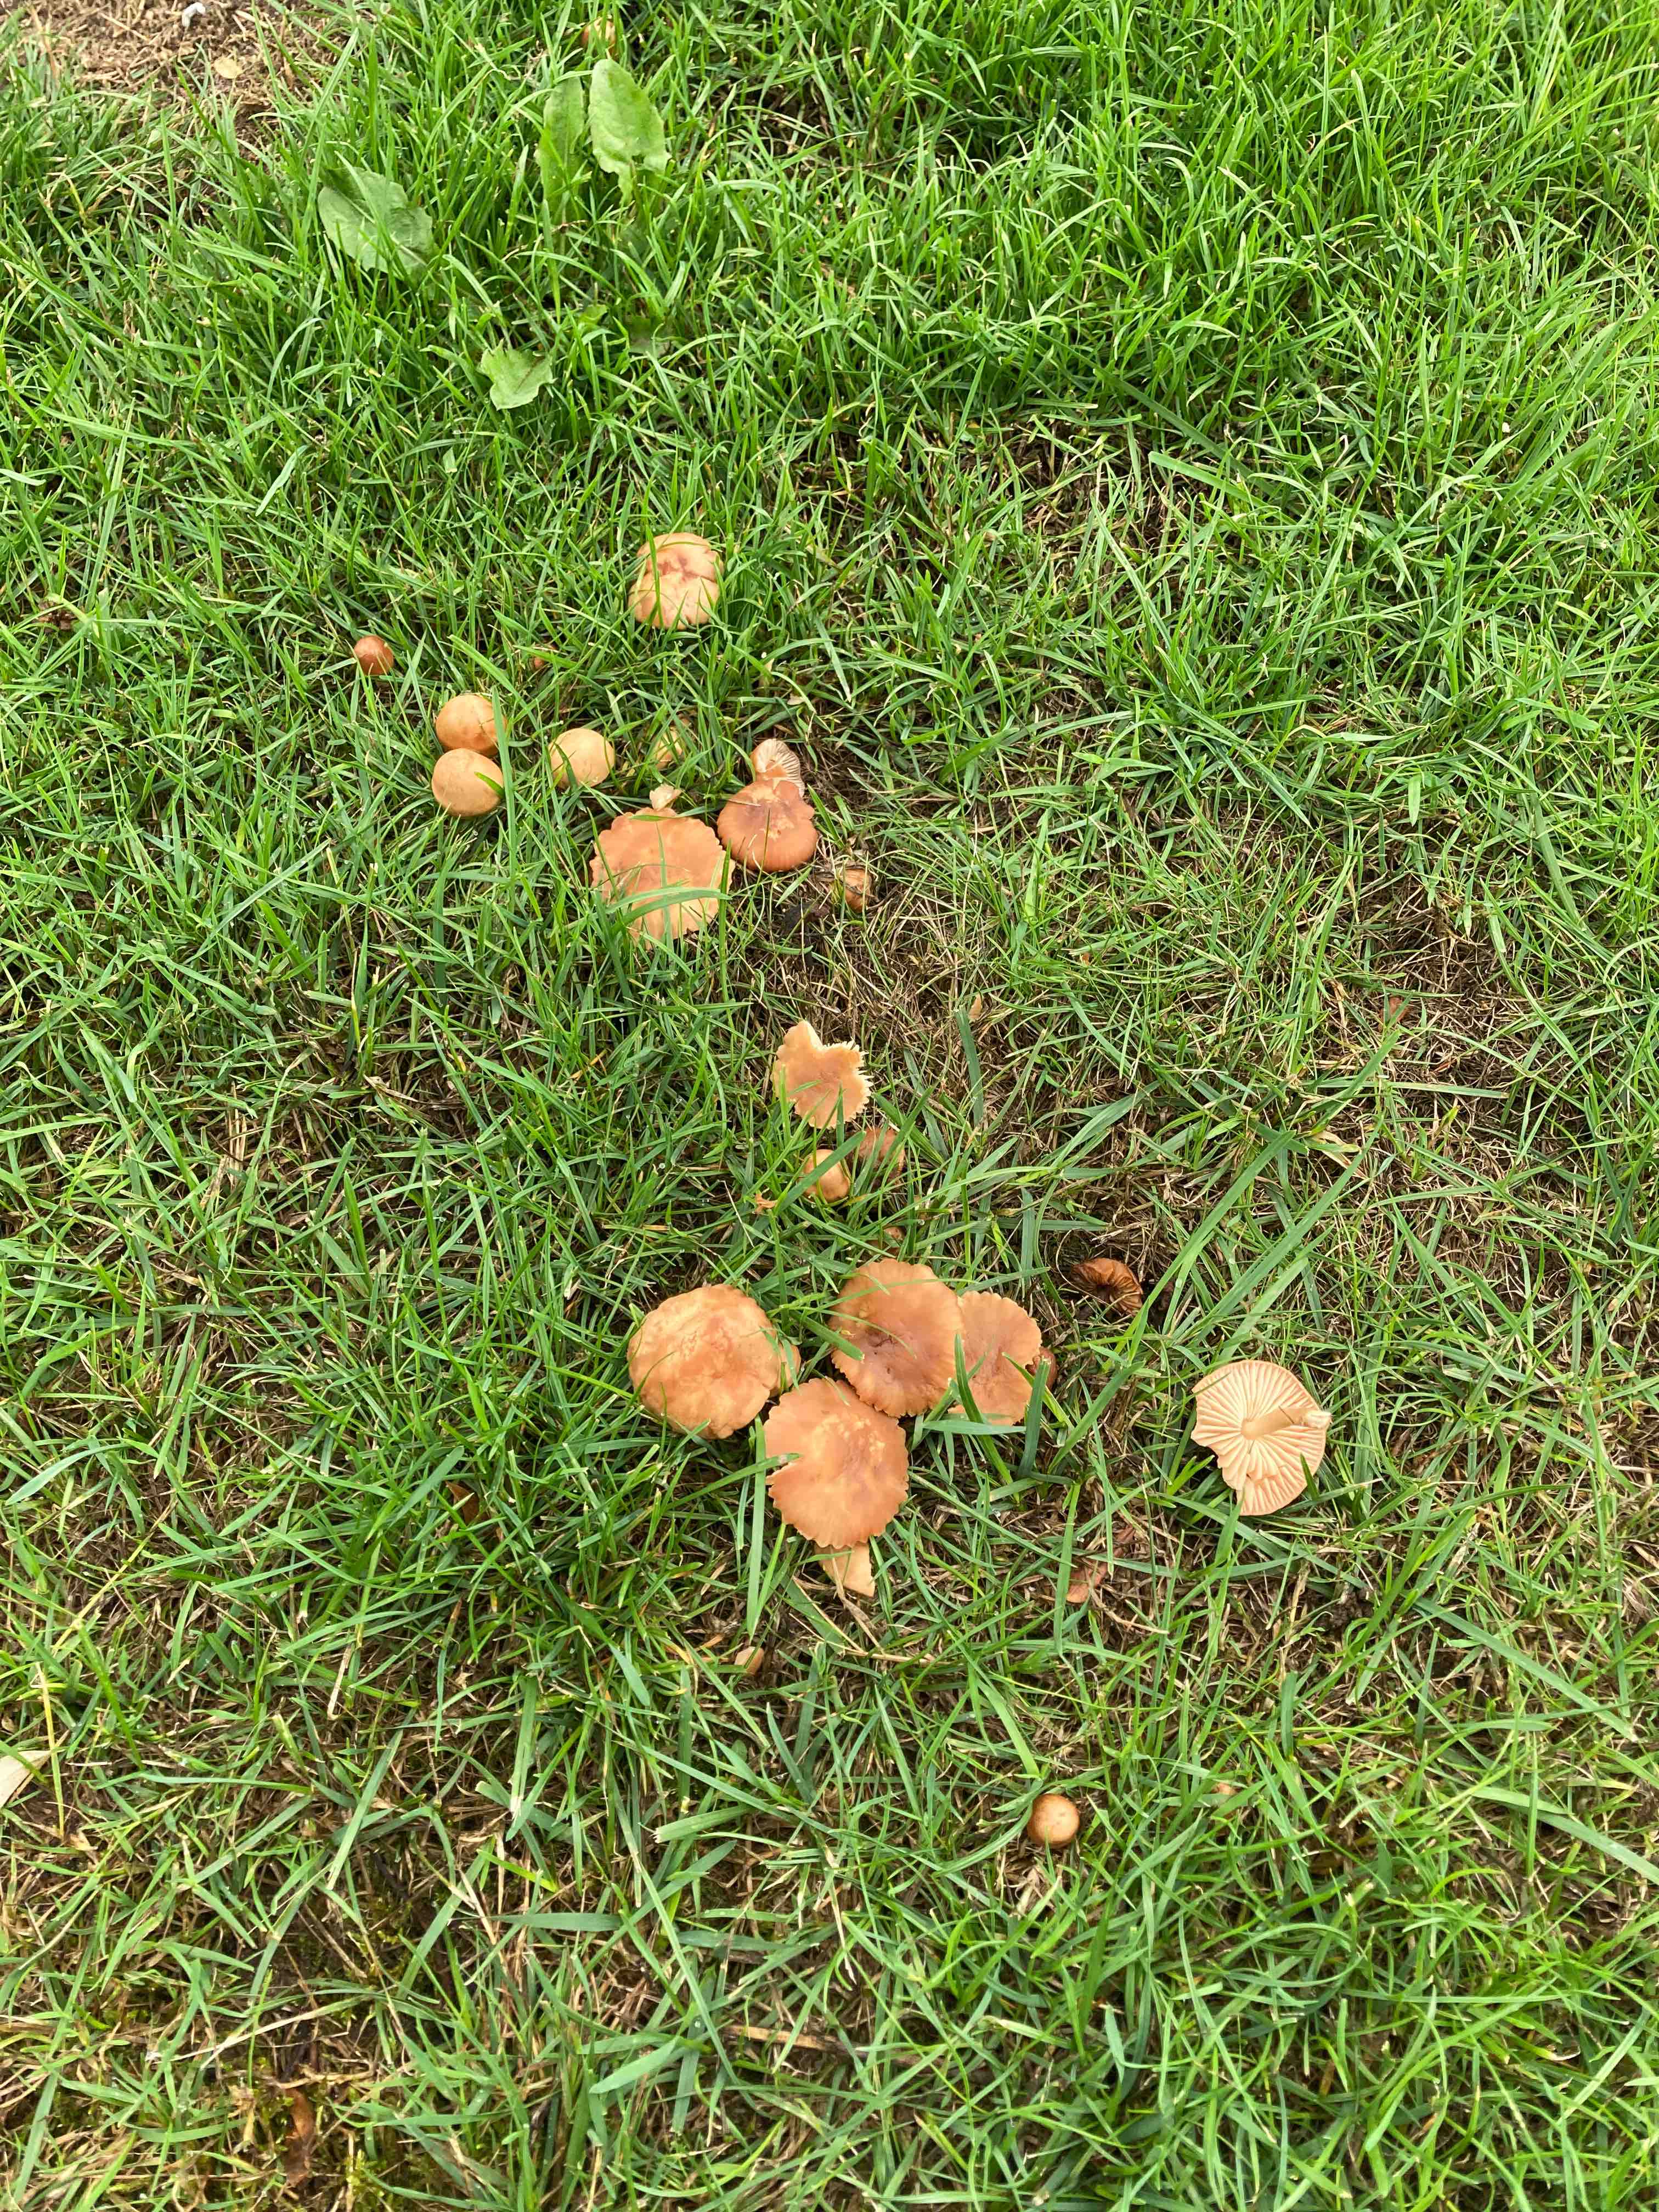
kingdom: Fungi
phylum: Basidiomycota
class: Agaricomycetes
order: Agaricales
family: Marasmiaceae
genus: Marasmius
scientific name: Marasmius oreades
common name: elledans-bruskhat
